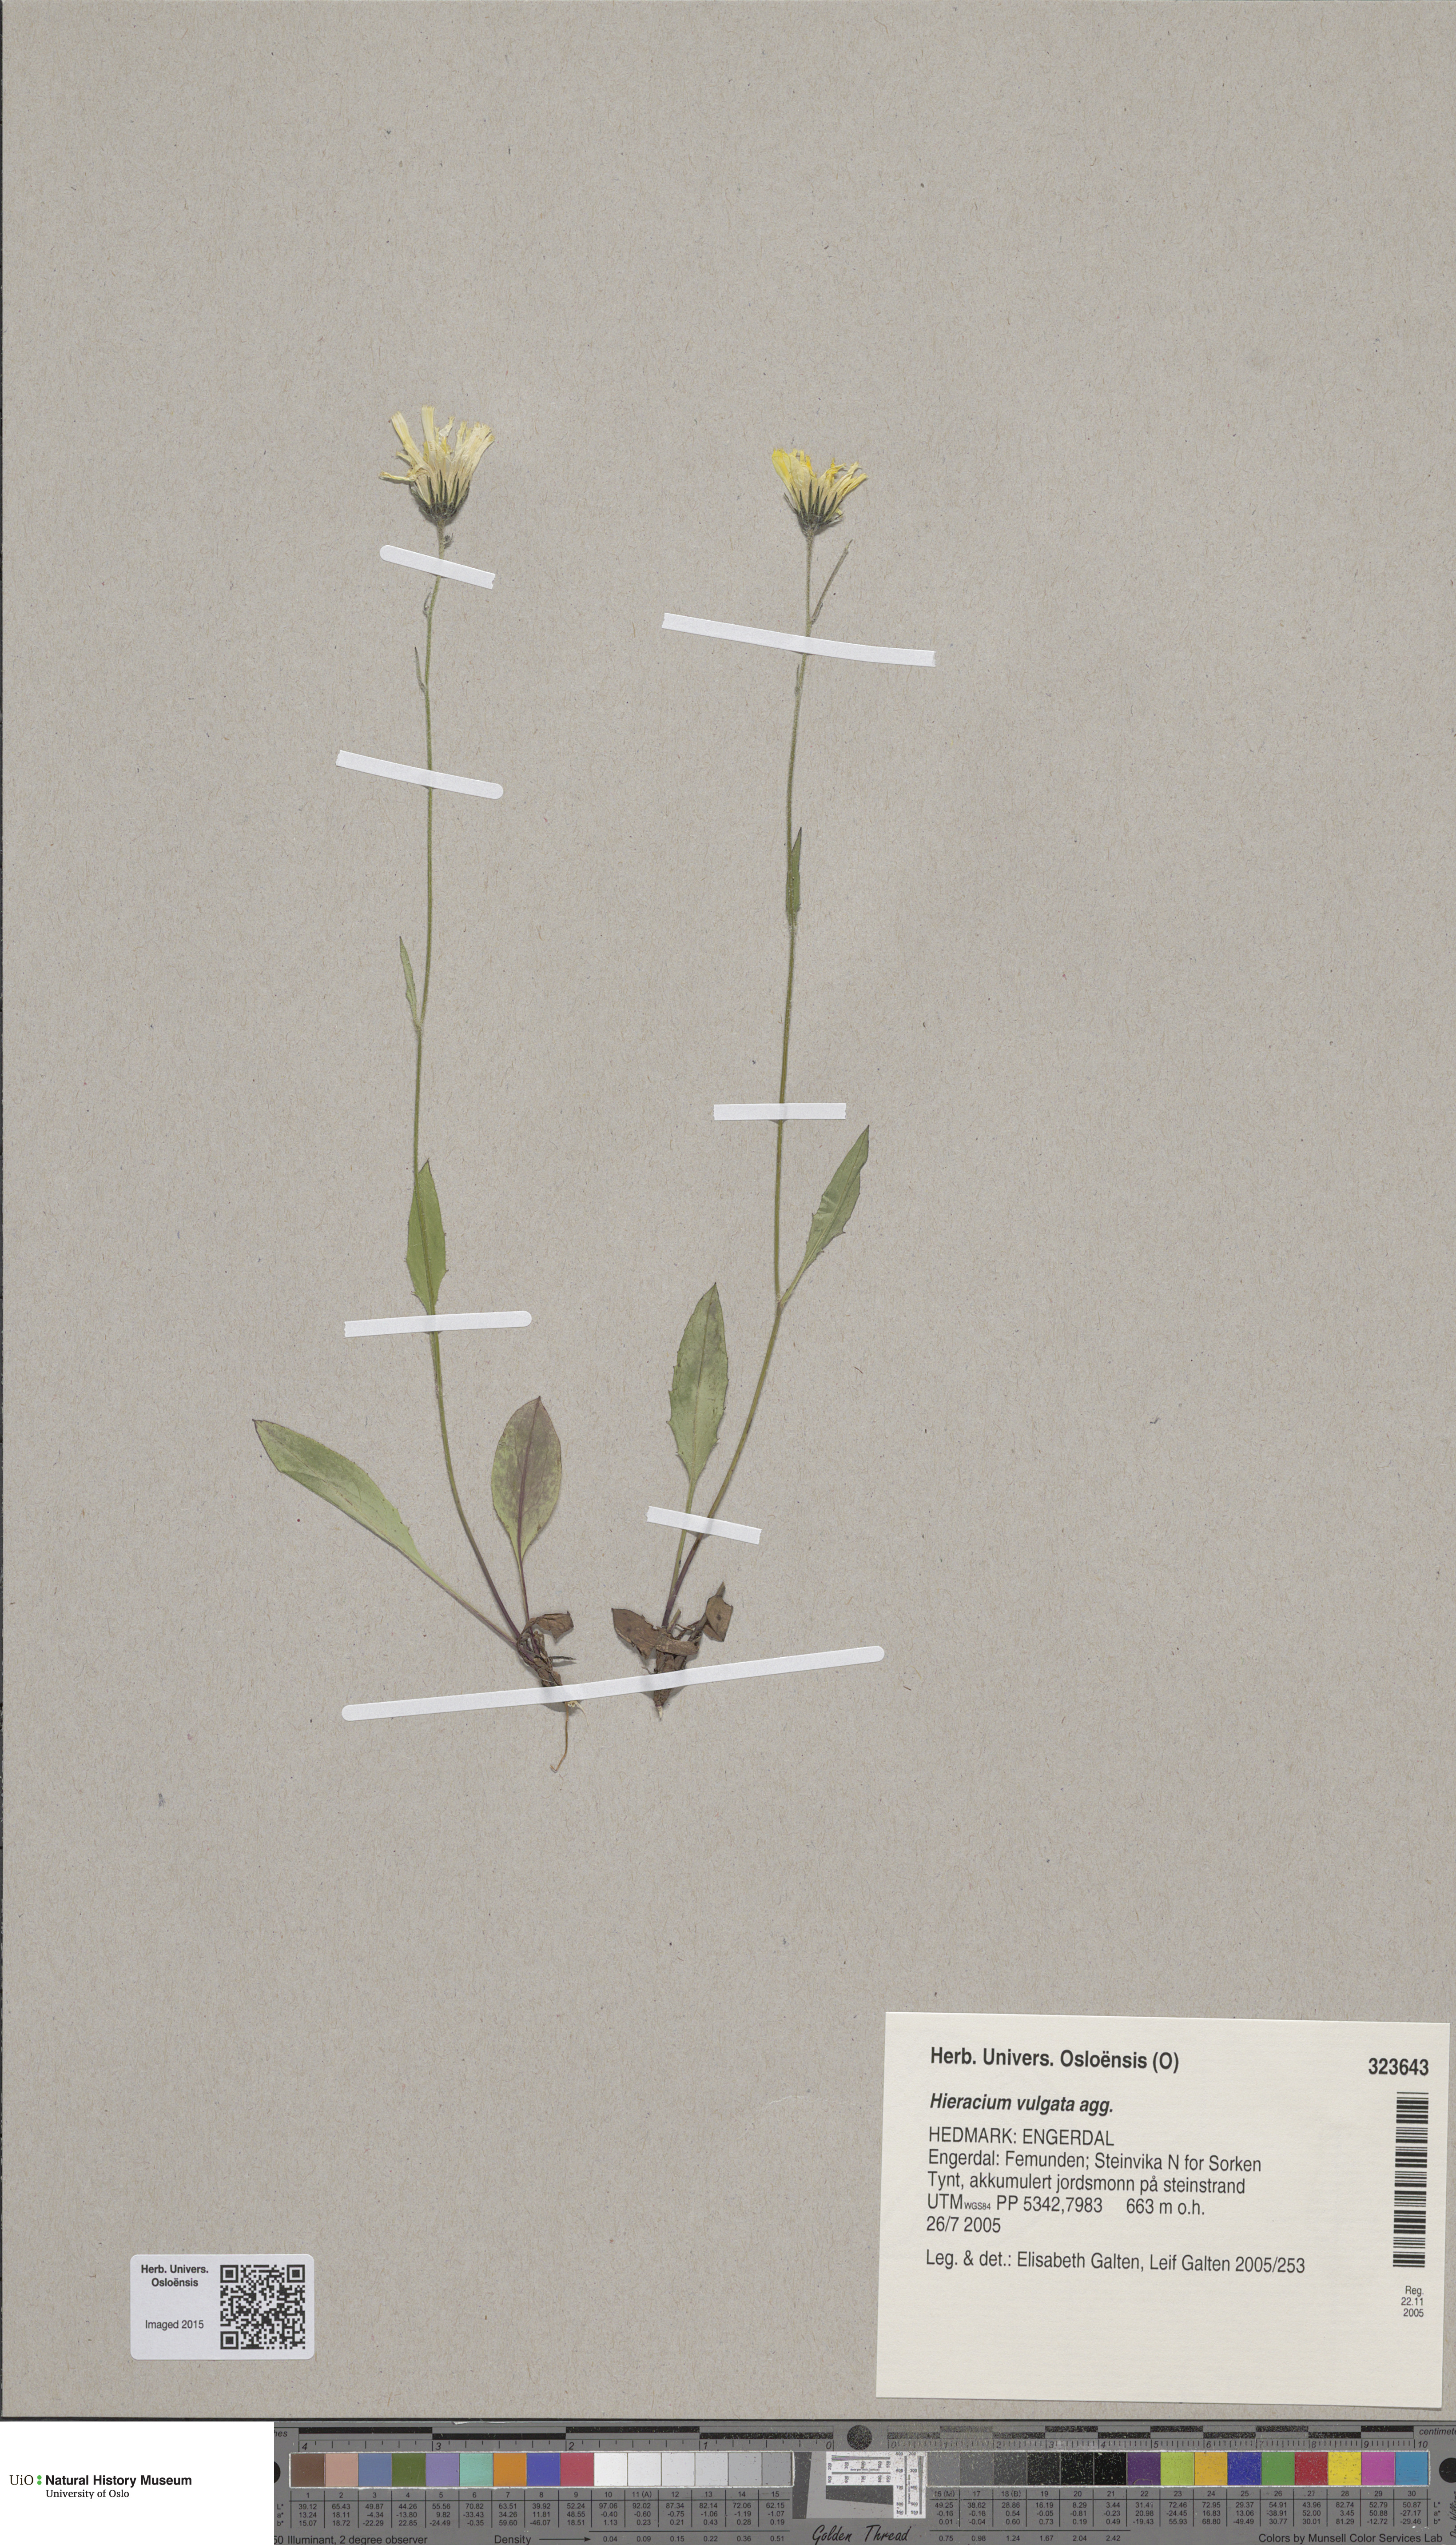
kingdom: Plantae
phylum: Tracheophyta
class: Magnoliopsida
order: Asterales
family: Asteraceae
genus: Hieracium
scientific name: Hieracium vulgatum
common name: Common hawkweed
